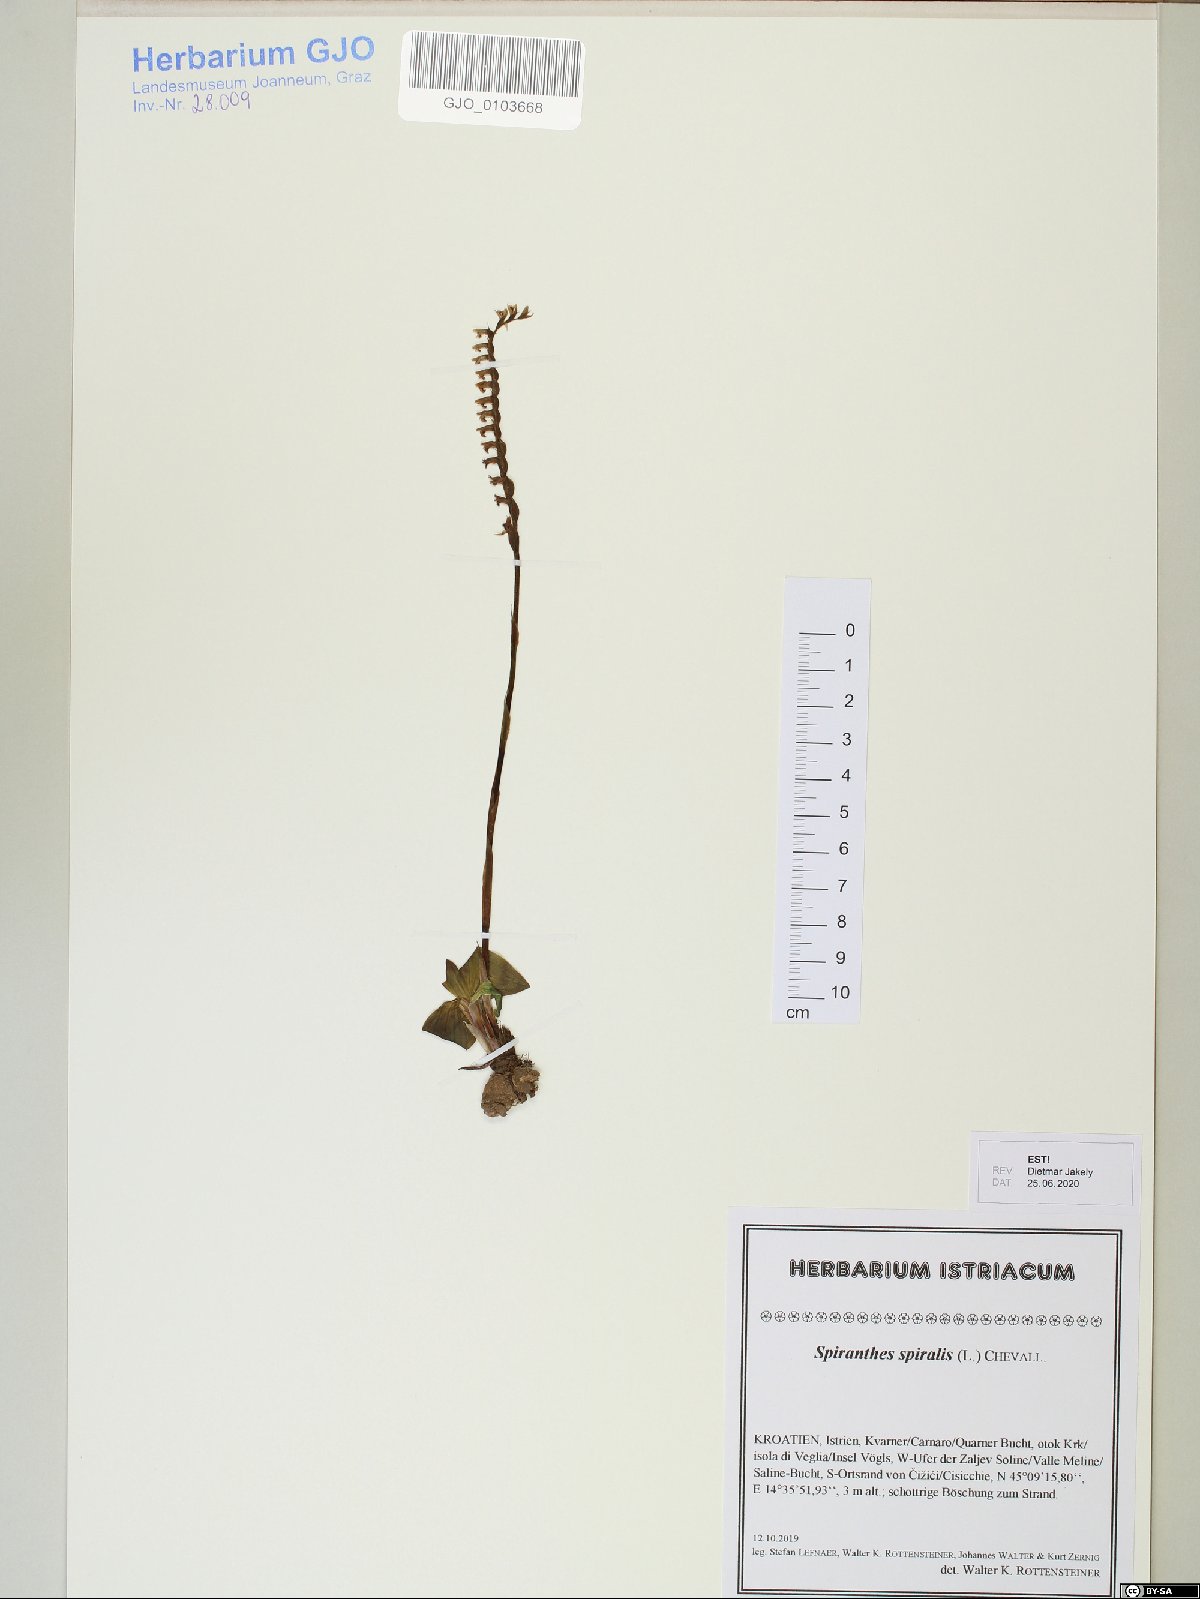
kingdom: Plantae
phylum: Tracheophyta
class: Liliopsida
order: Asparagales
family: Orchidaceae
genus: Spiranthes
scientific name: Spiranthes spiralis
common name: Autumn lady's-tresses
